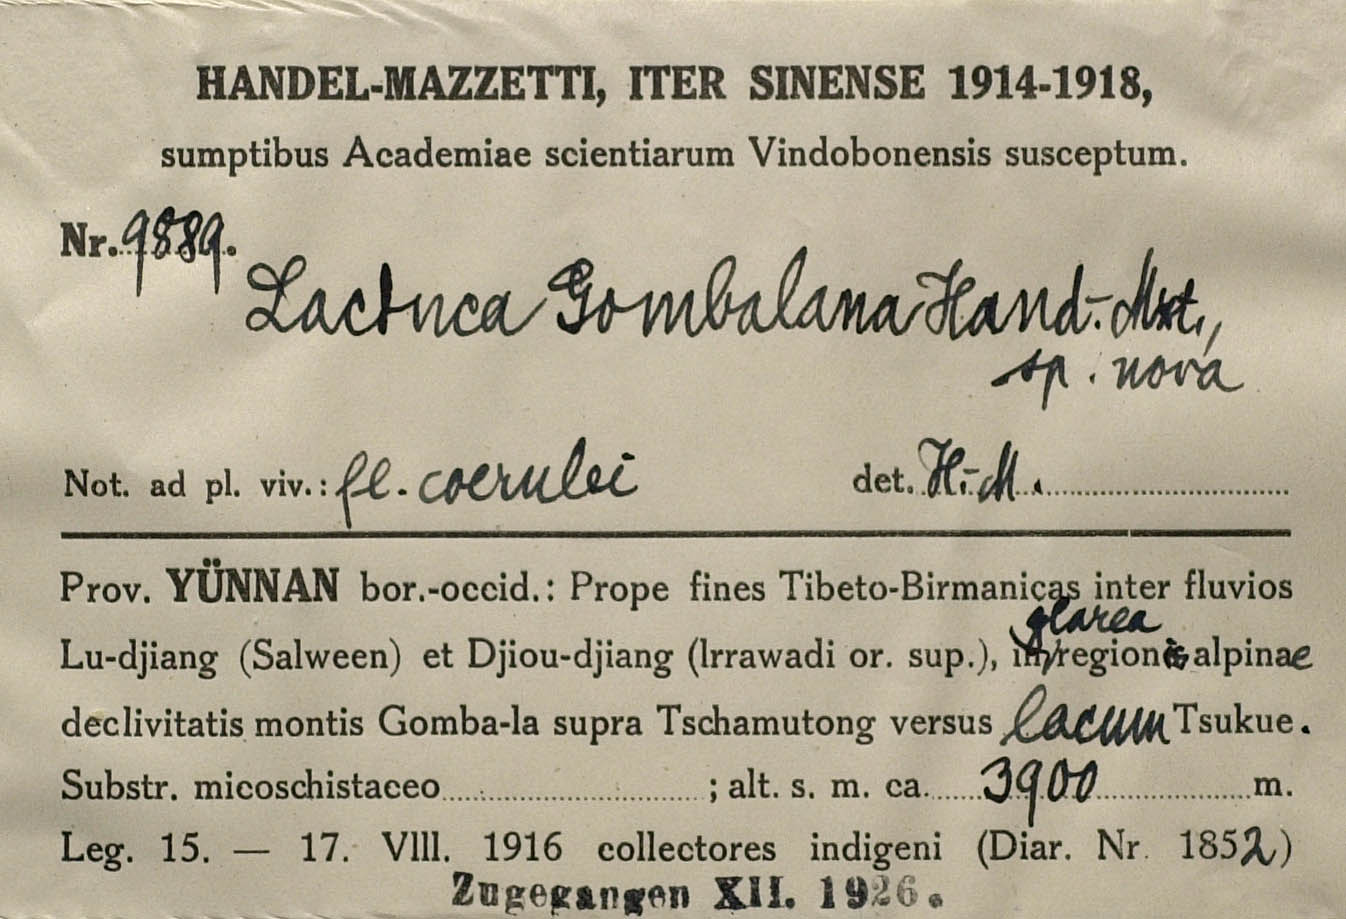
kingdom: Plantae
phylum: Tracheophyta
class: Magnoliopsida
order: Asterales
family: Asteraceae
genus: Lihengia
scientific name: Lihengia gombalana
